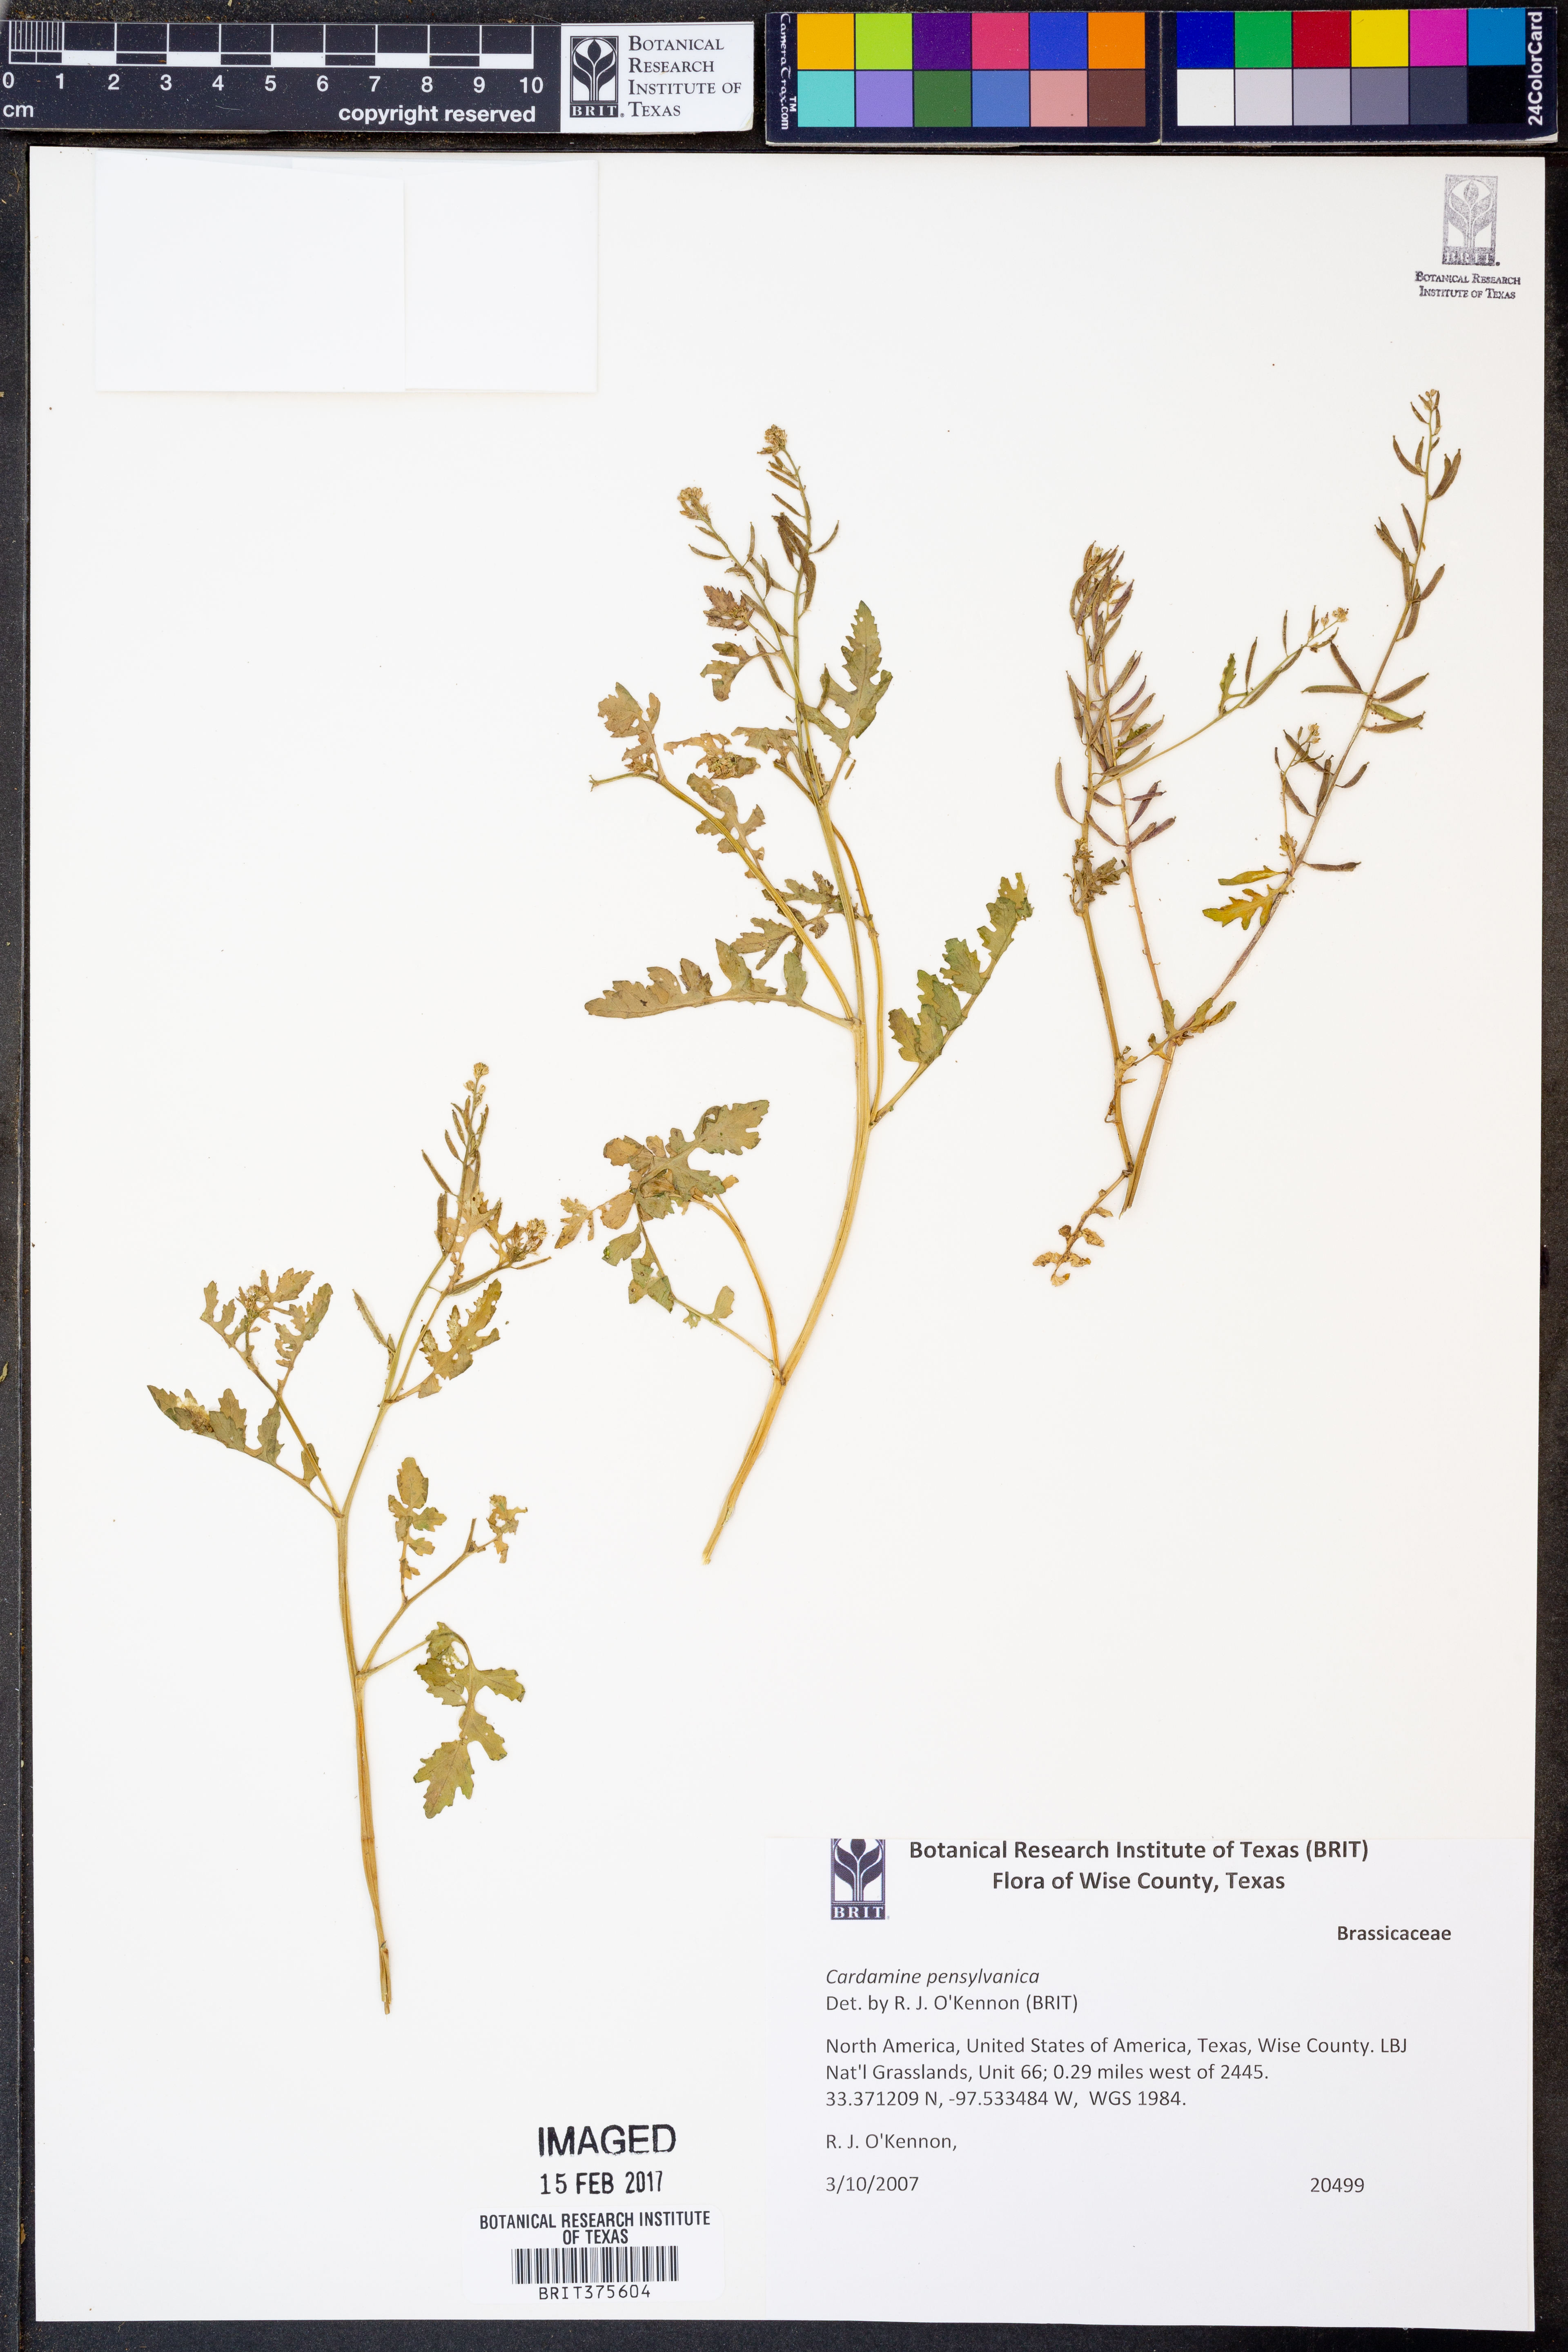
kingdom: Plantae
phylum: Tracheophyta
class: Magnoliopsida
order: Brassicales
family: Brassicaceae
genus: Cardamine
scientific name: Cardamine pensylvanica
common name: Pennsylvania bittercress
